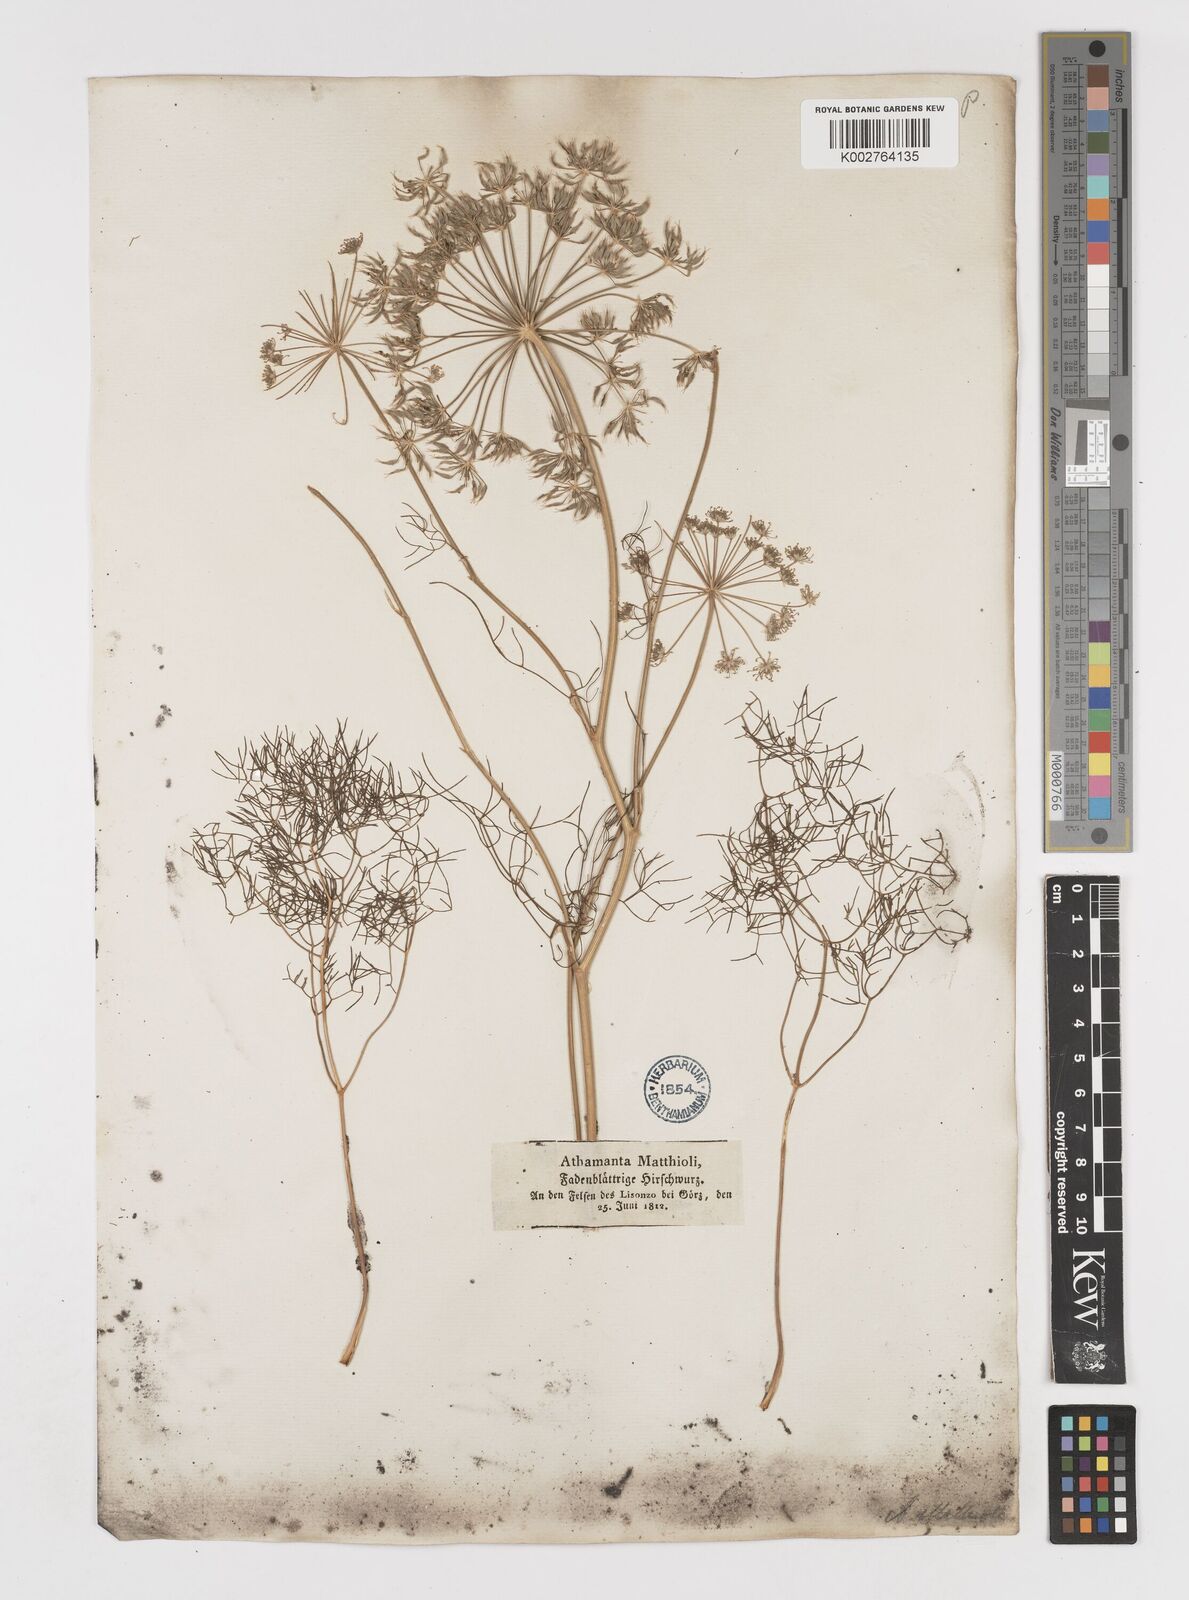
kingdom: Plantae
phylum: Tracheophyta
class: Magnoliopsida
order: Apiales
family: Apiaceae
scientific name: Apiaceae
